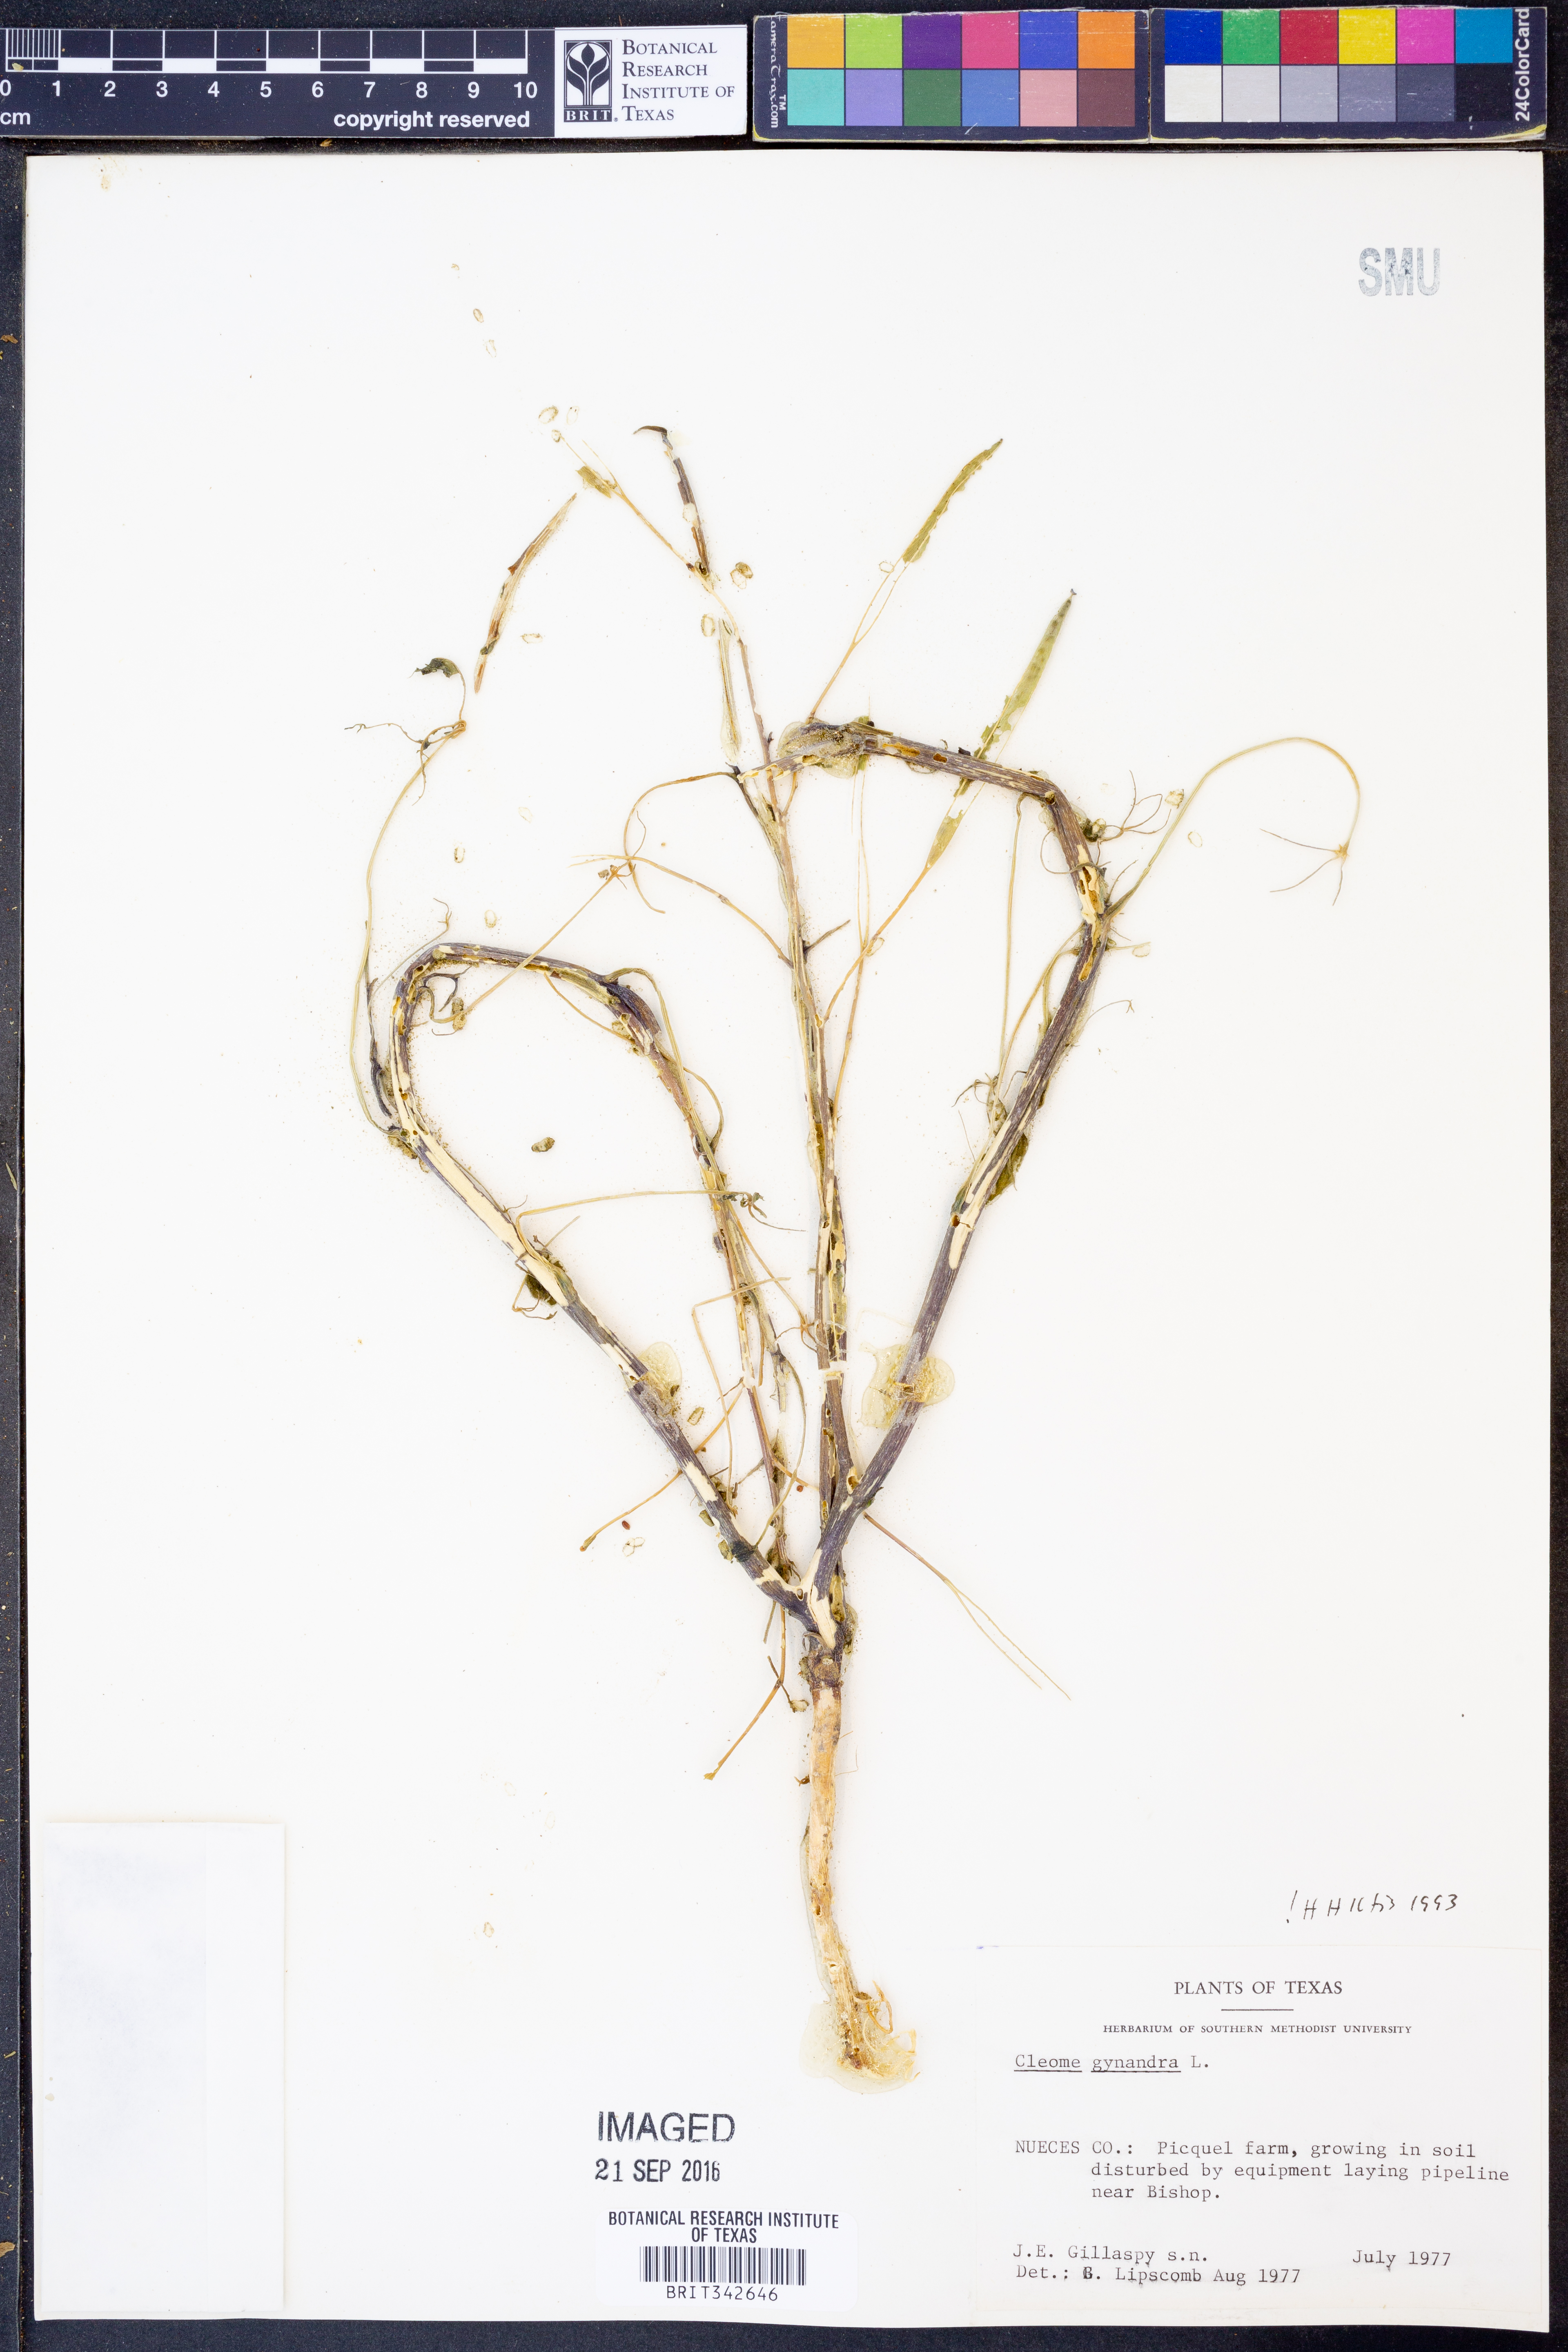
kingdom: Plantae
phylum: Tracheophyta
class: Magnoliopsida
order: Brassicales
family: Cleomaceae
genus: Gynandropsis
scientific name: Gynandropsis gynandra
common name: Spiderwisp
